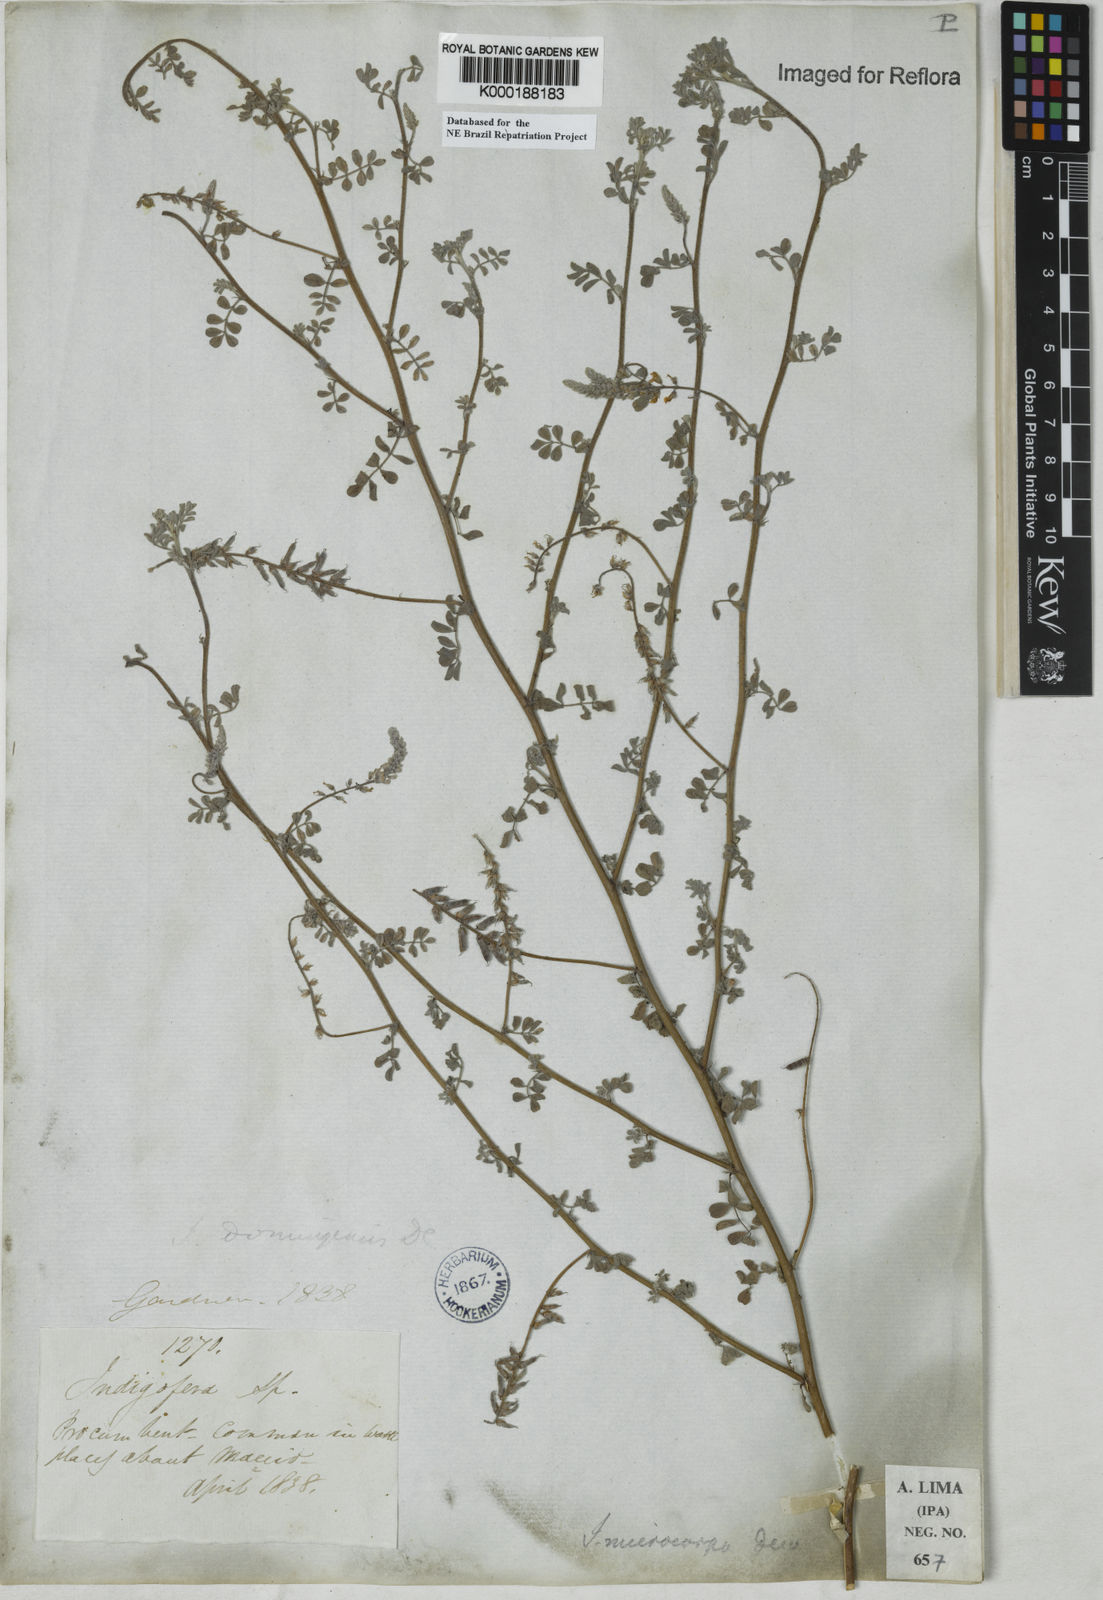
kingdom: Plantae
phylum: Tracheophyta
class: Magnoliopsida
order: Fabales
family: Fabaceae
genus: Indigofera
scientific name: Indigofera microcarpa
